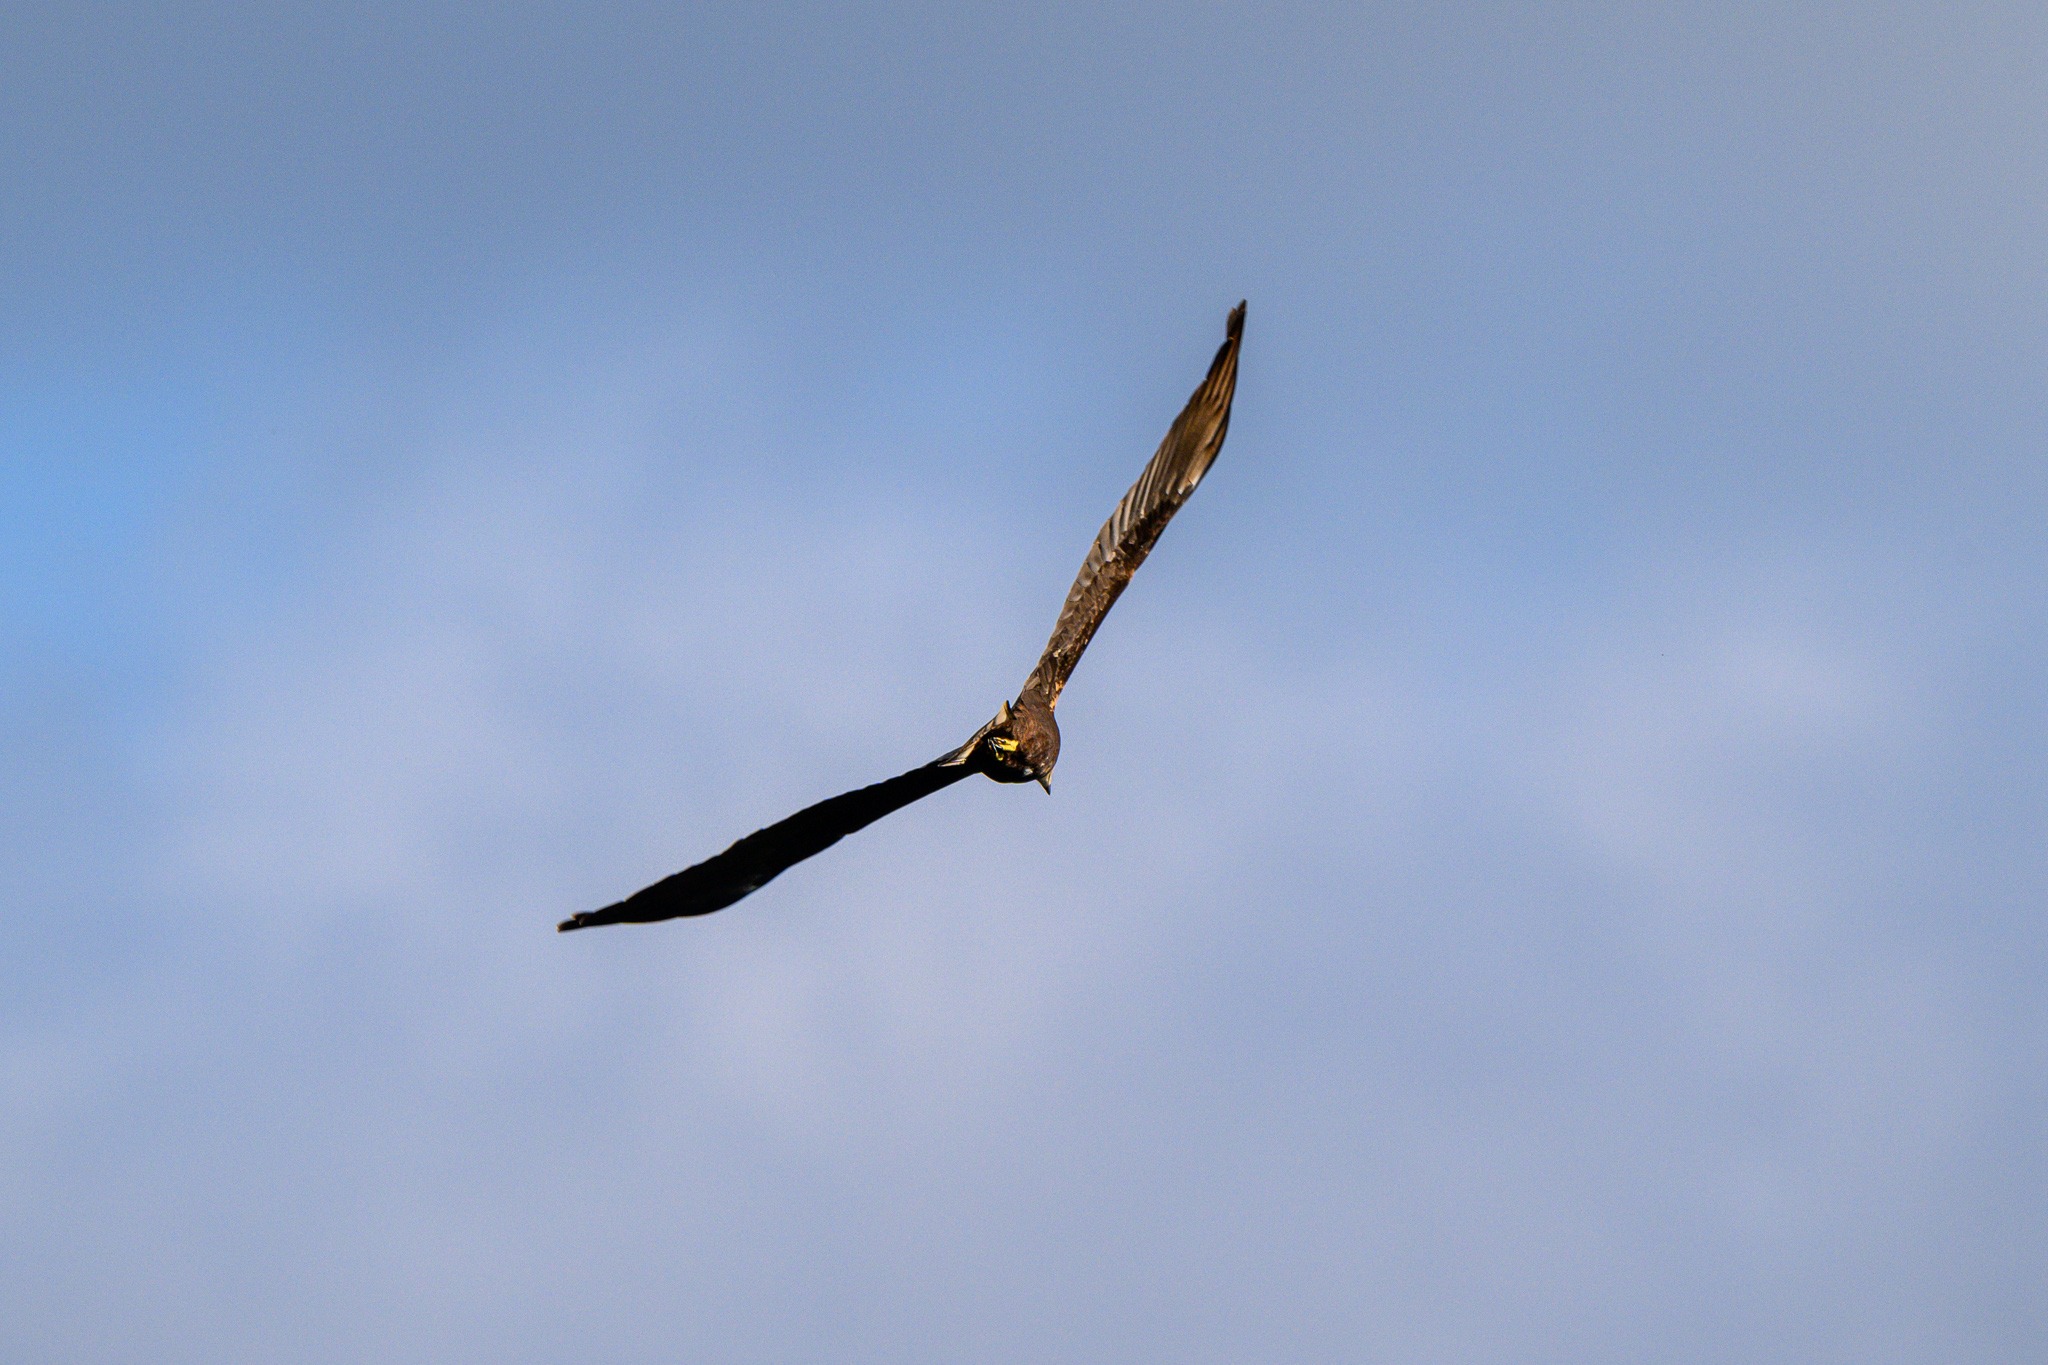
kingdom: Animalia
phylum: Chordata
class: Aves
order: Accipitriformes
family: Accipitridae
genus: Circus
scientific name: Circus aeruginosus
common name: Rørhøg
